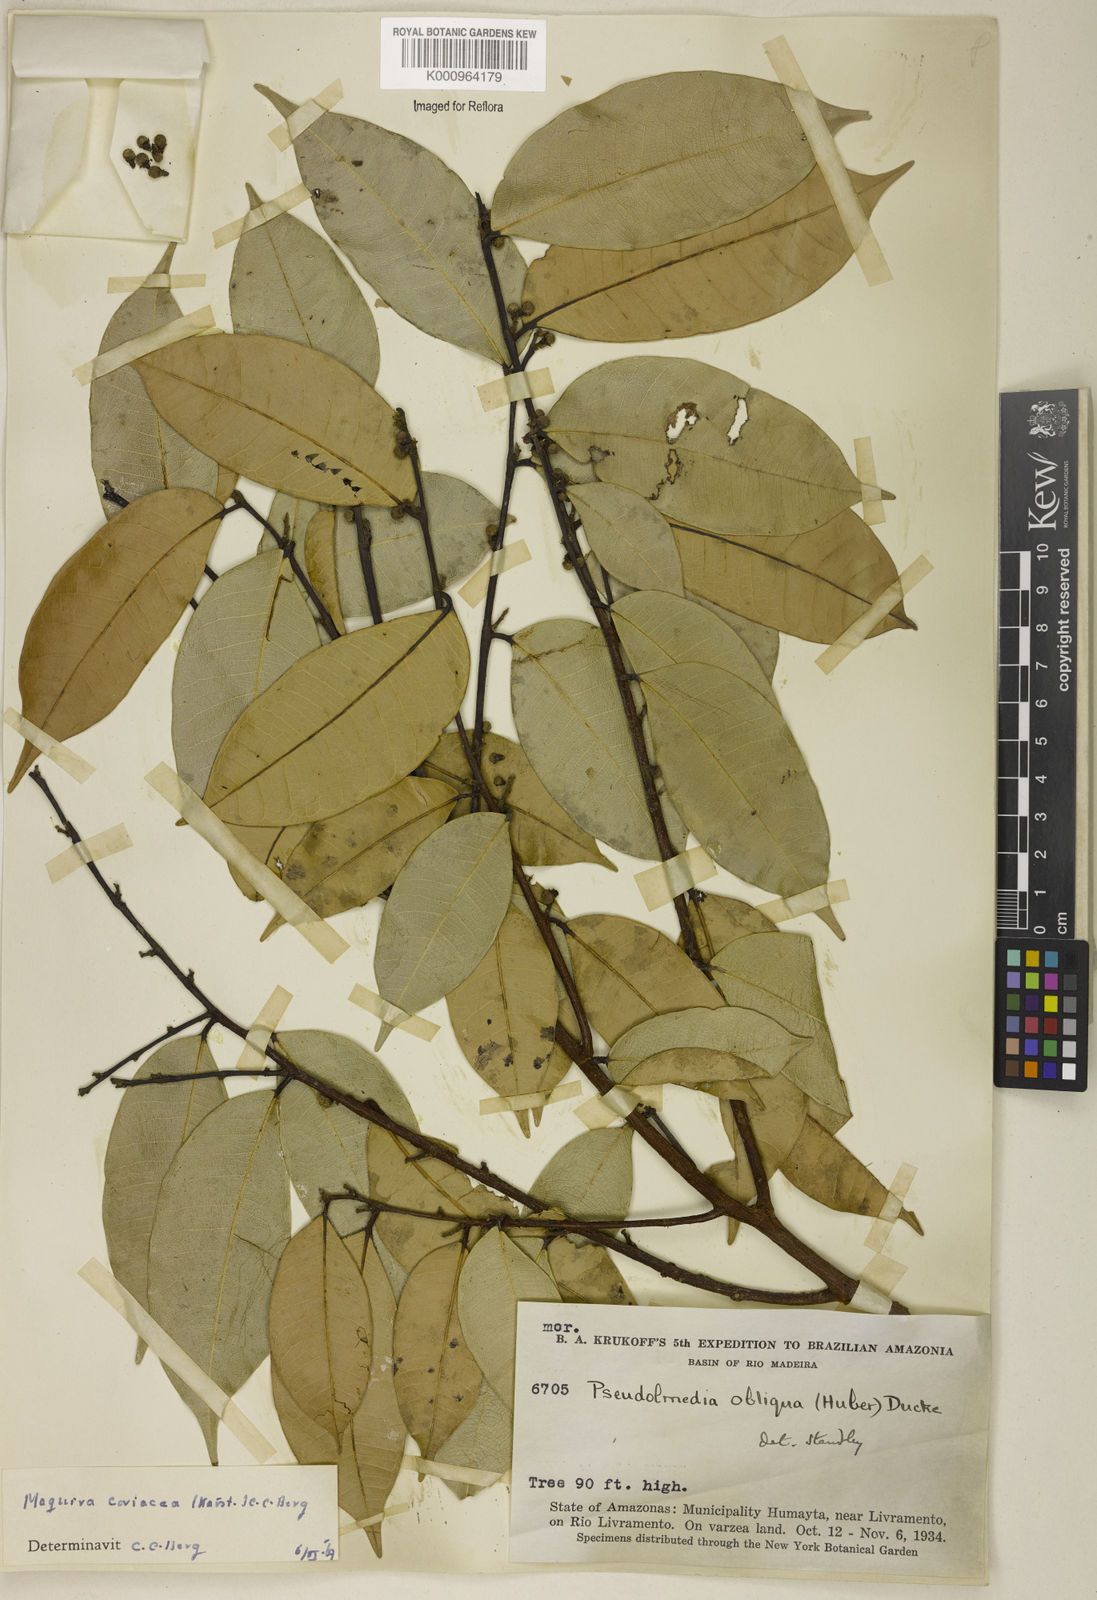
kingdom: Plantae
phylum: Tracheophyta
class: Magnoliopsida
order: Rosales
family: Moraceae
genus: Maquira
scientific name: Maquira coriacea
